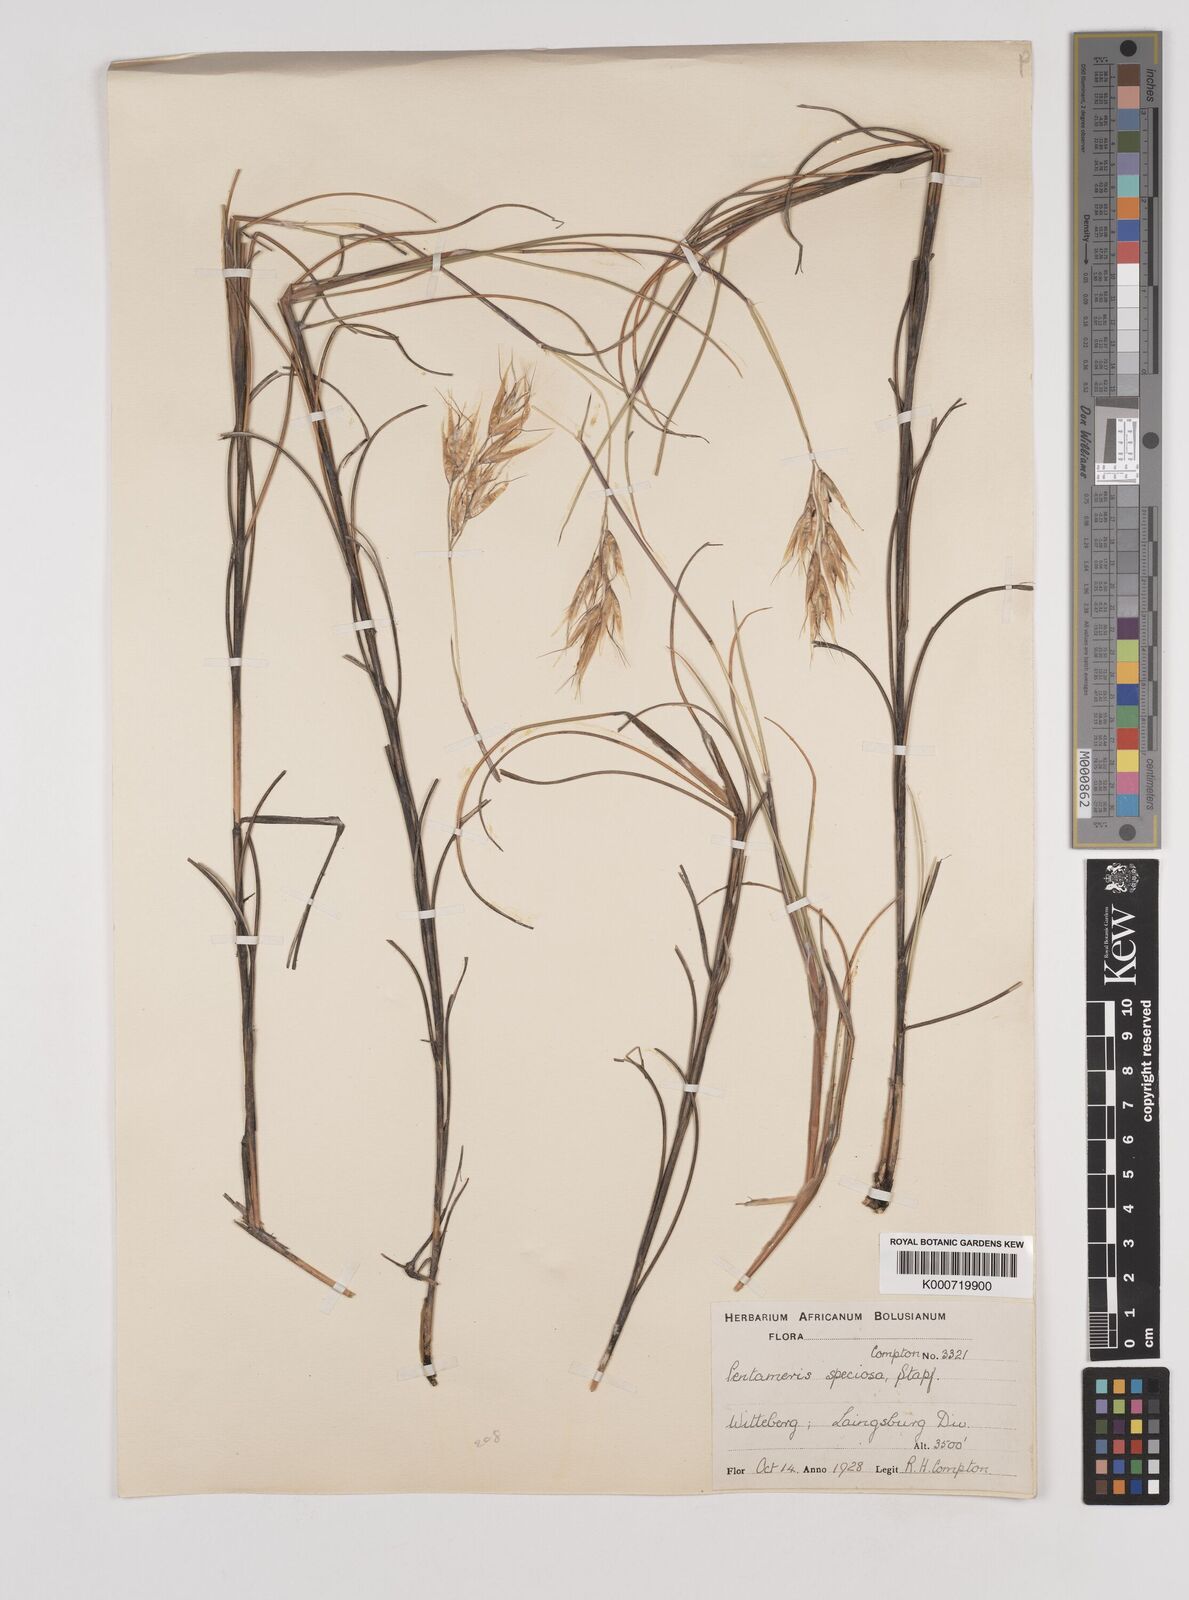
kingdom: Plantae
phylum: Tracheophyta
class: Liliopsida
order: Poales
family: Poaceae
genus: Pentameris
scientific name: Pentameris macrocalycina
